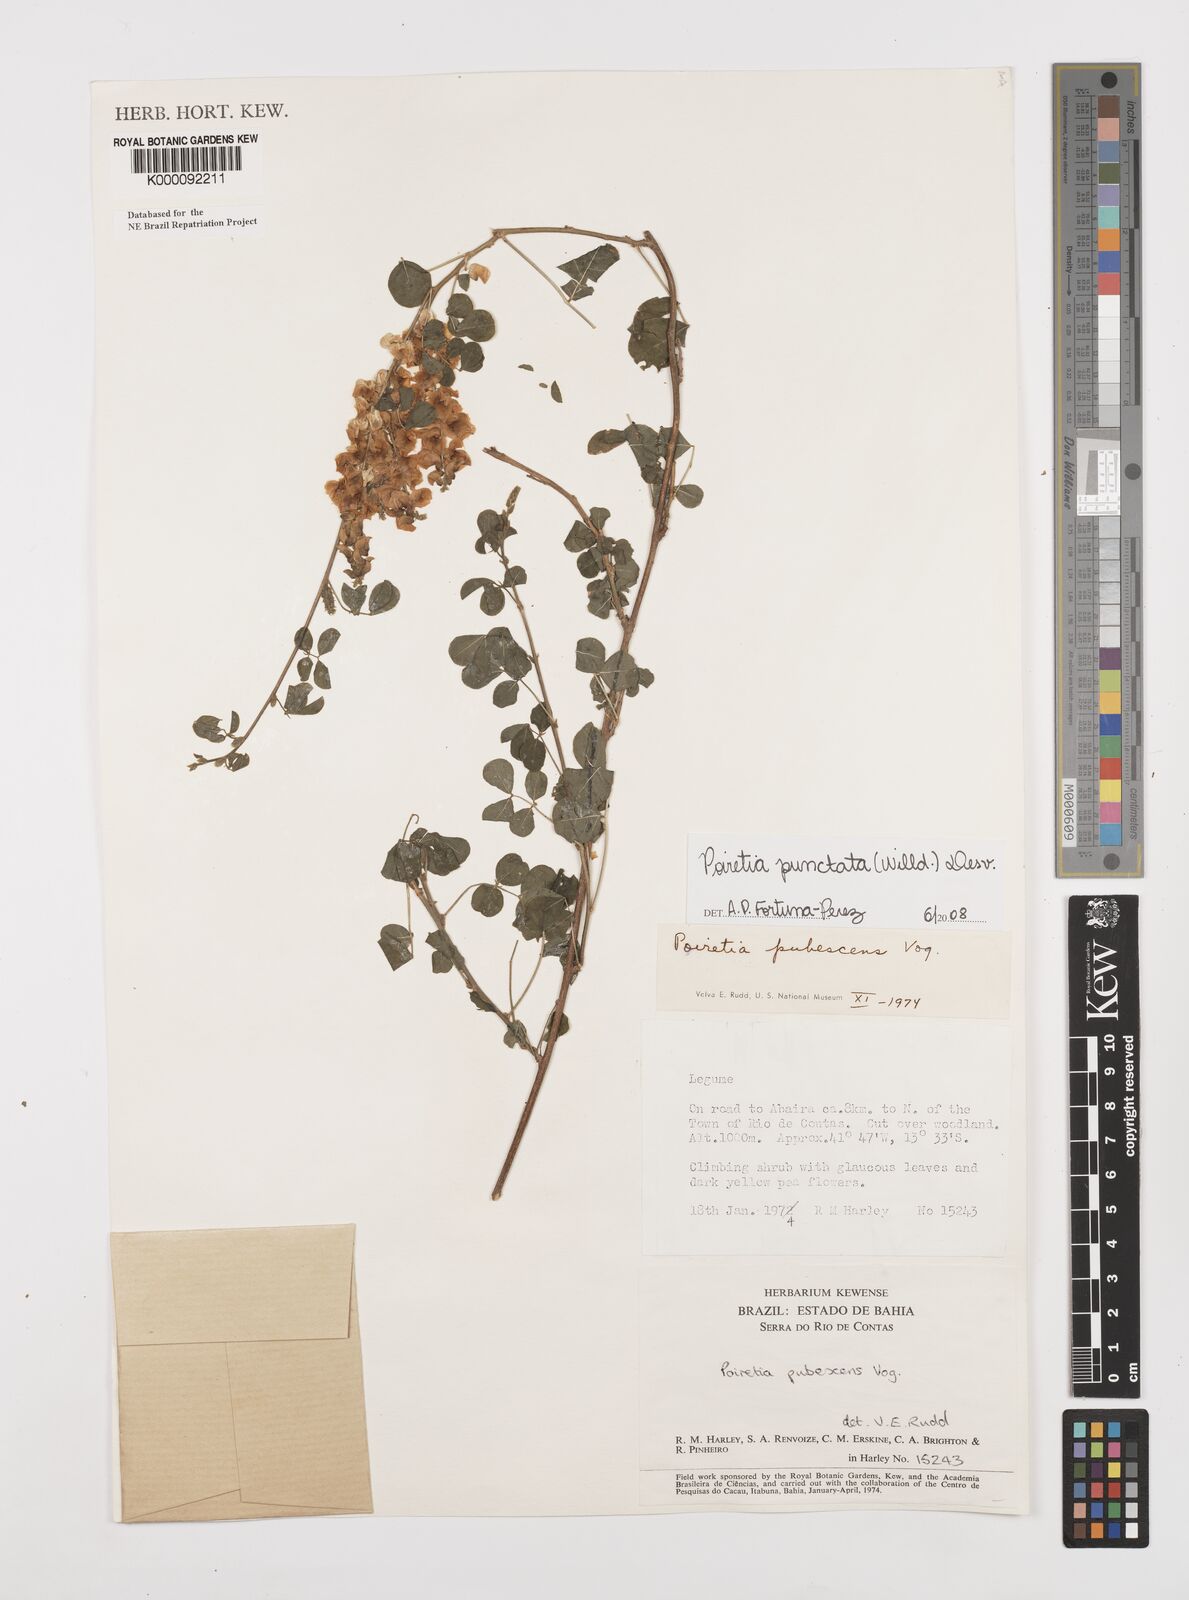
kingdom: Plantae
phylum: Tracheophyta
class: Magnoliopsida
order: Fabales
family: Fabaceae
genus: Poiretia
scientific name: Poiretia punctata
